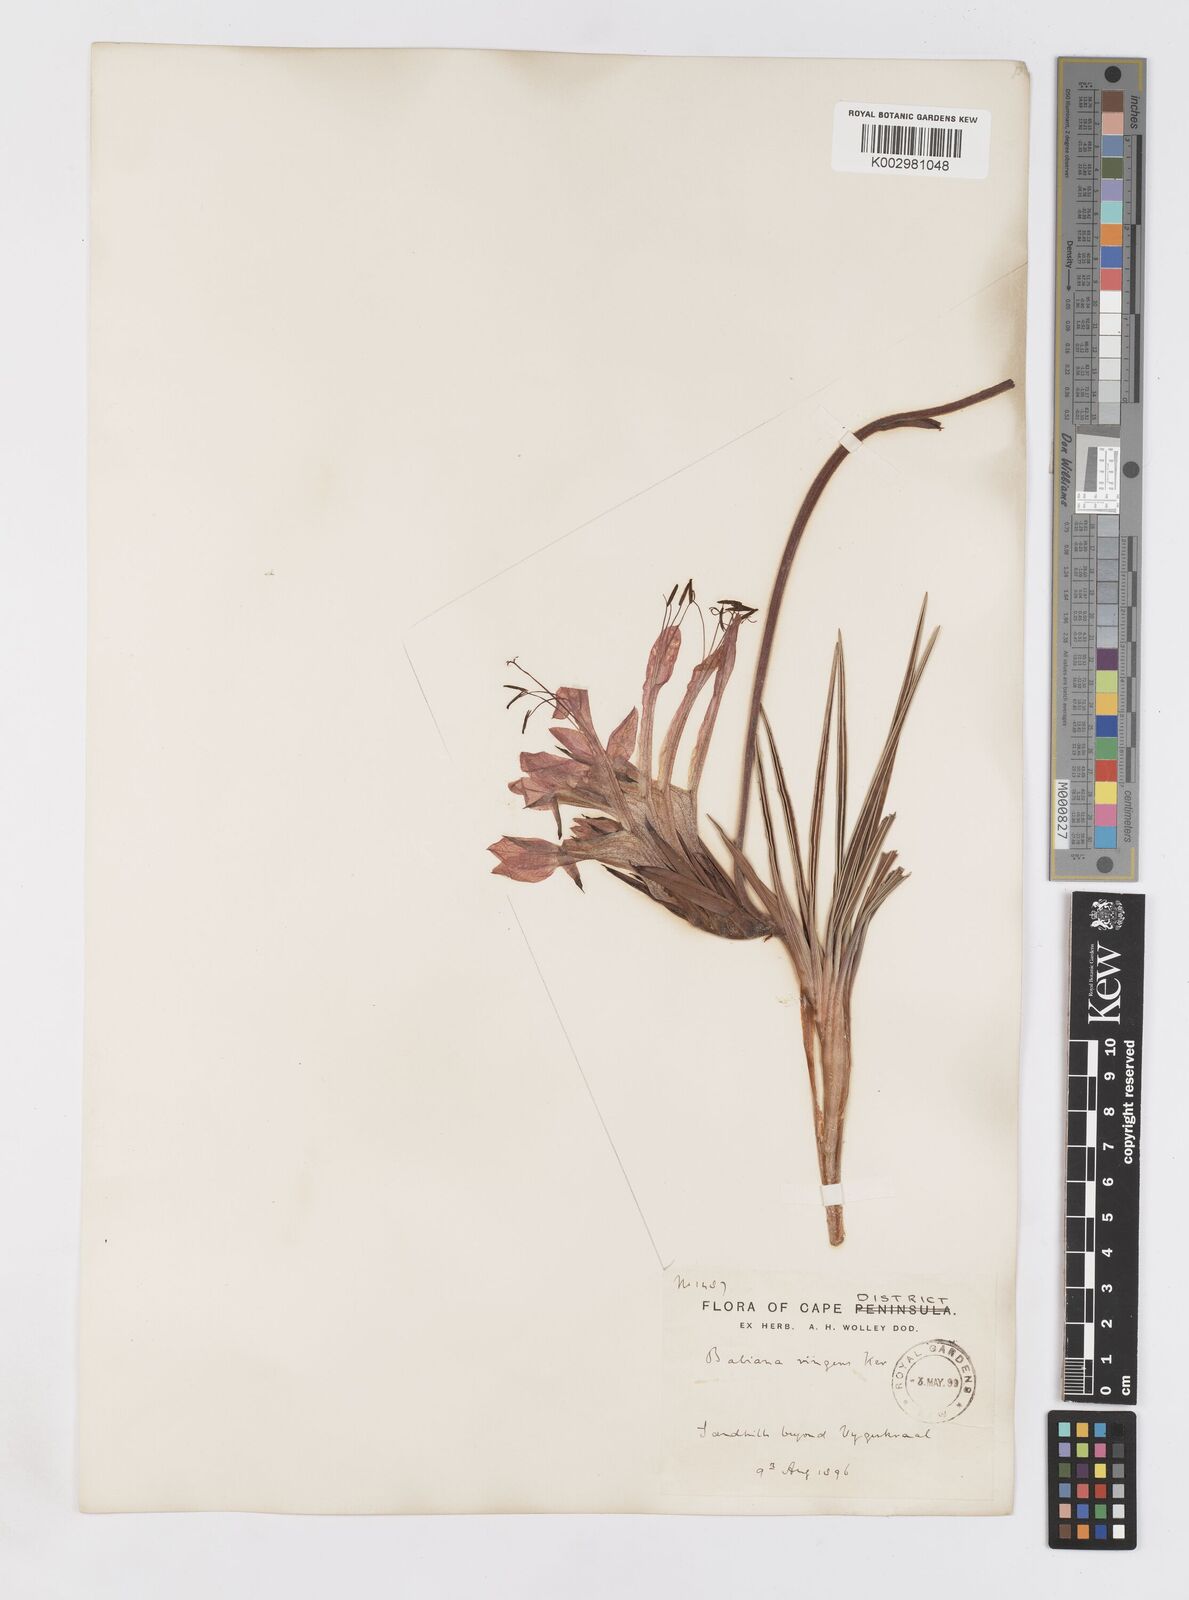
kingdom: Plantae
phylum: Tracheophyta
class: Liliopsida
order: Asparagales
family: Iridaceae
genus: Babiana
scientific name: Babiana ringens
